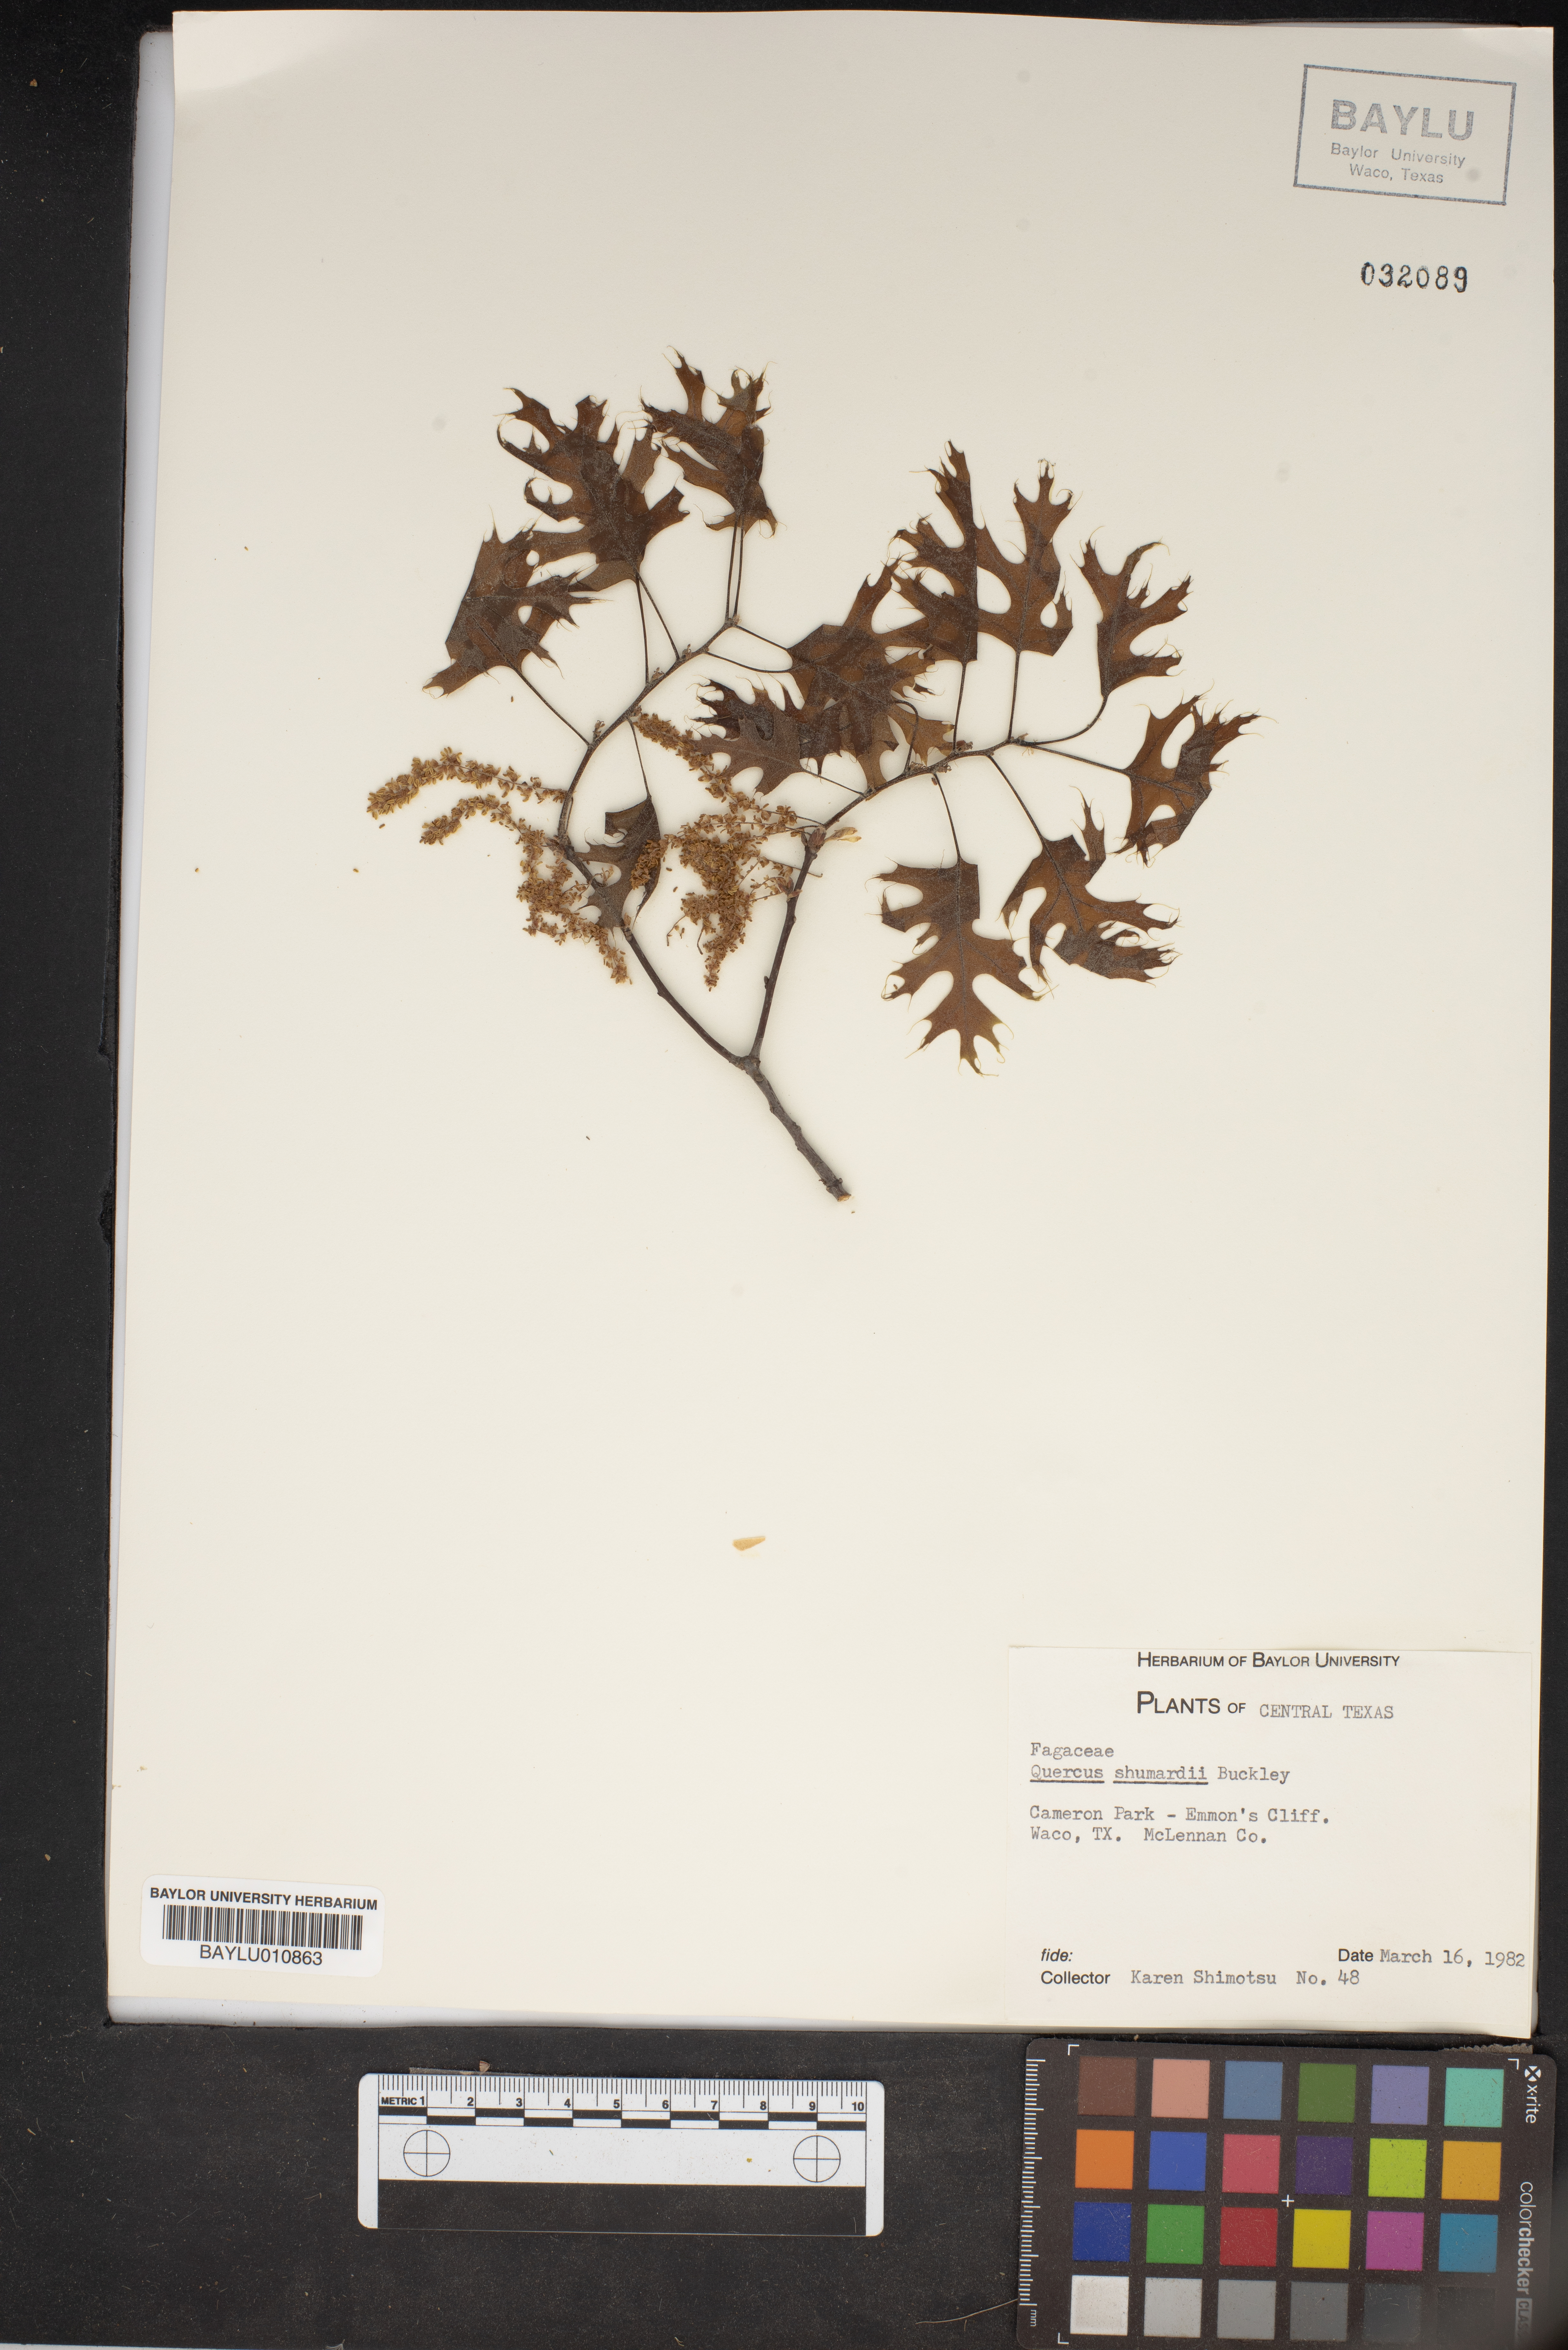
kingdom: Plantae
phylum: Tracheophyta
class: Magnoliopsida
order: Fagales
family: Fagaceae
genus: Quercus
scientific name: Quercus shumardii
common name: Shumard oak
